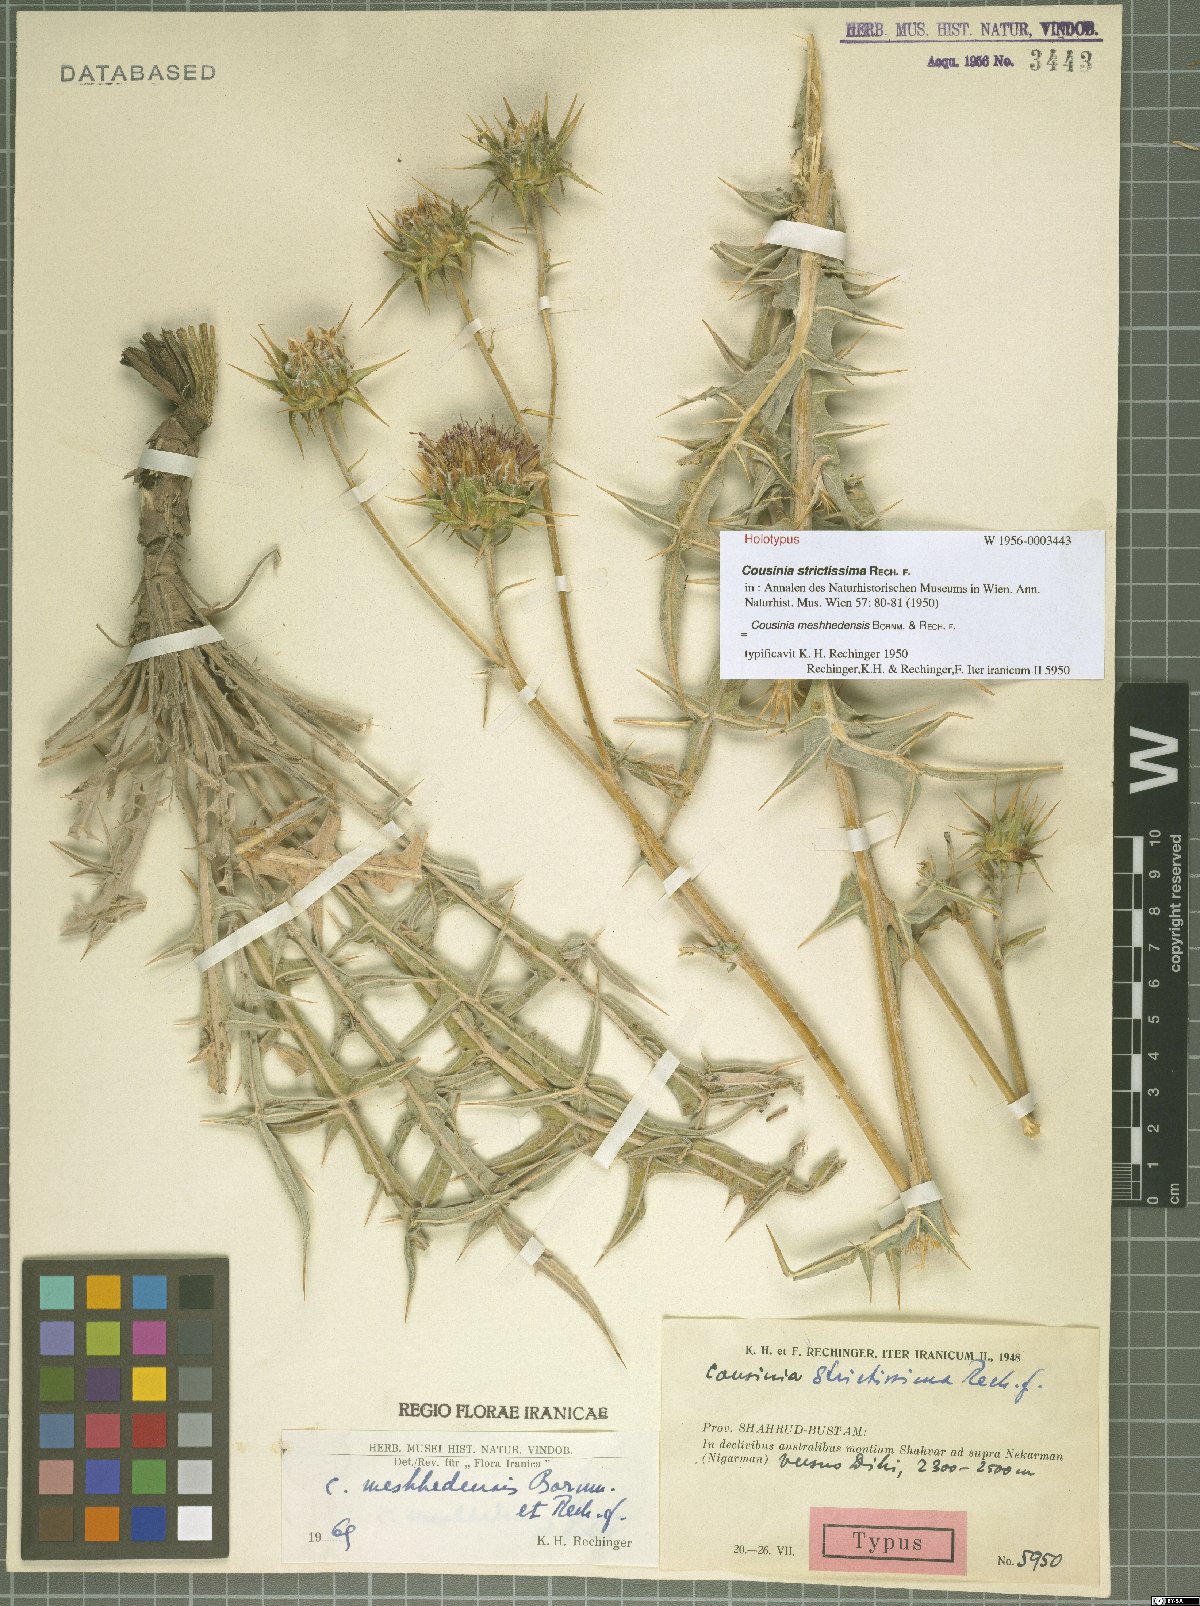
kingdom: Plantae
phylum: Tracheophyta
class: Magnoliopsida
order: Asterales
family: Asteraceae
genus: Cousinia
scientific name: Cousinia meshhedensis
